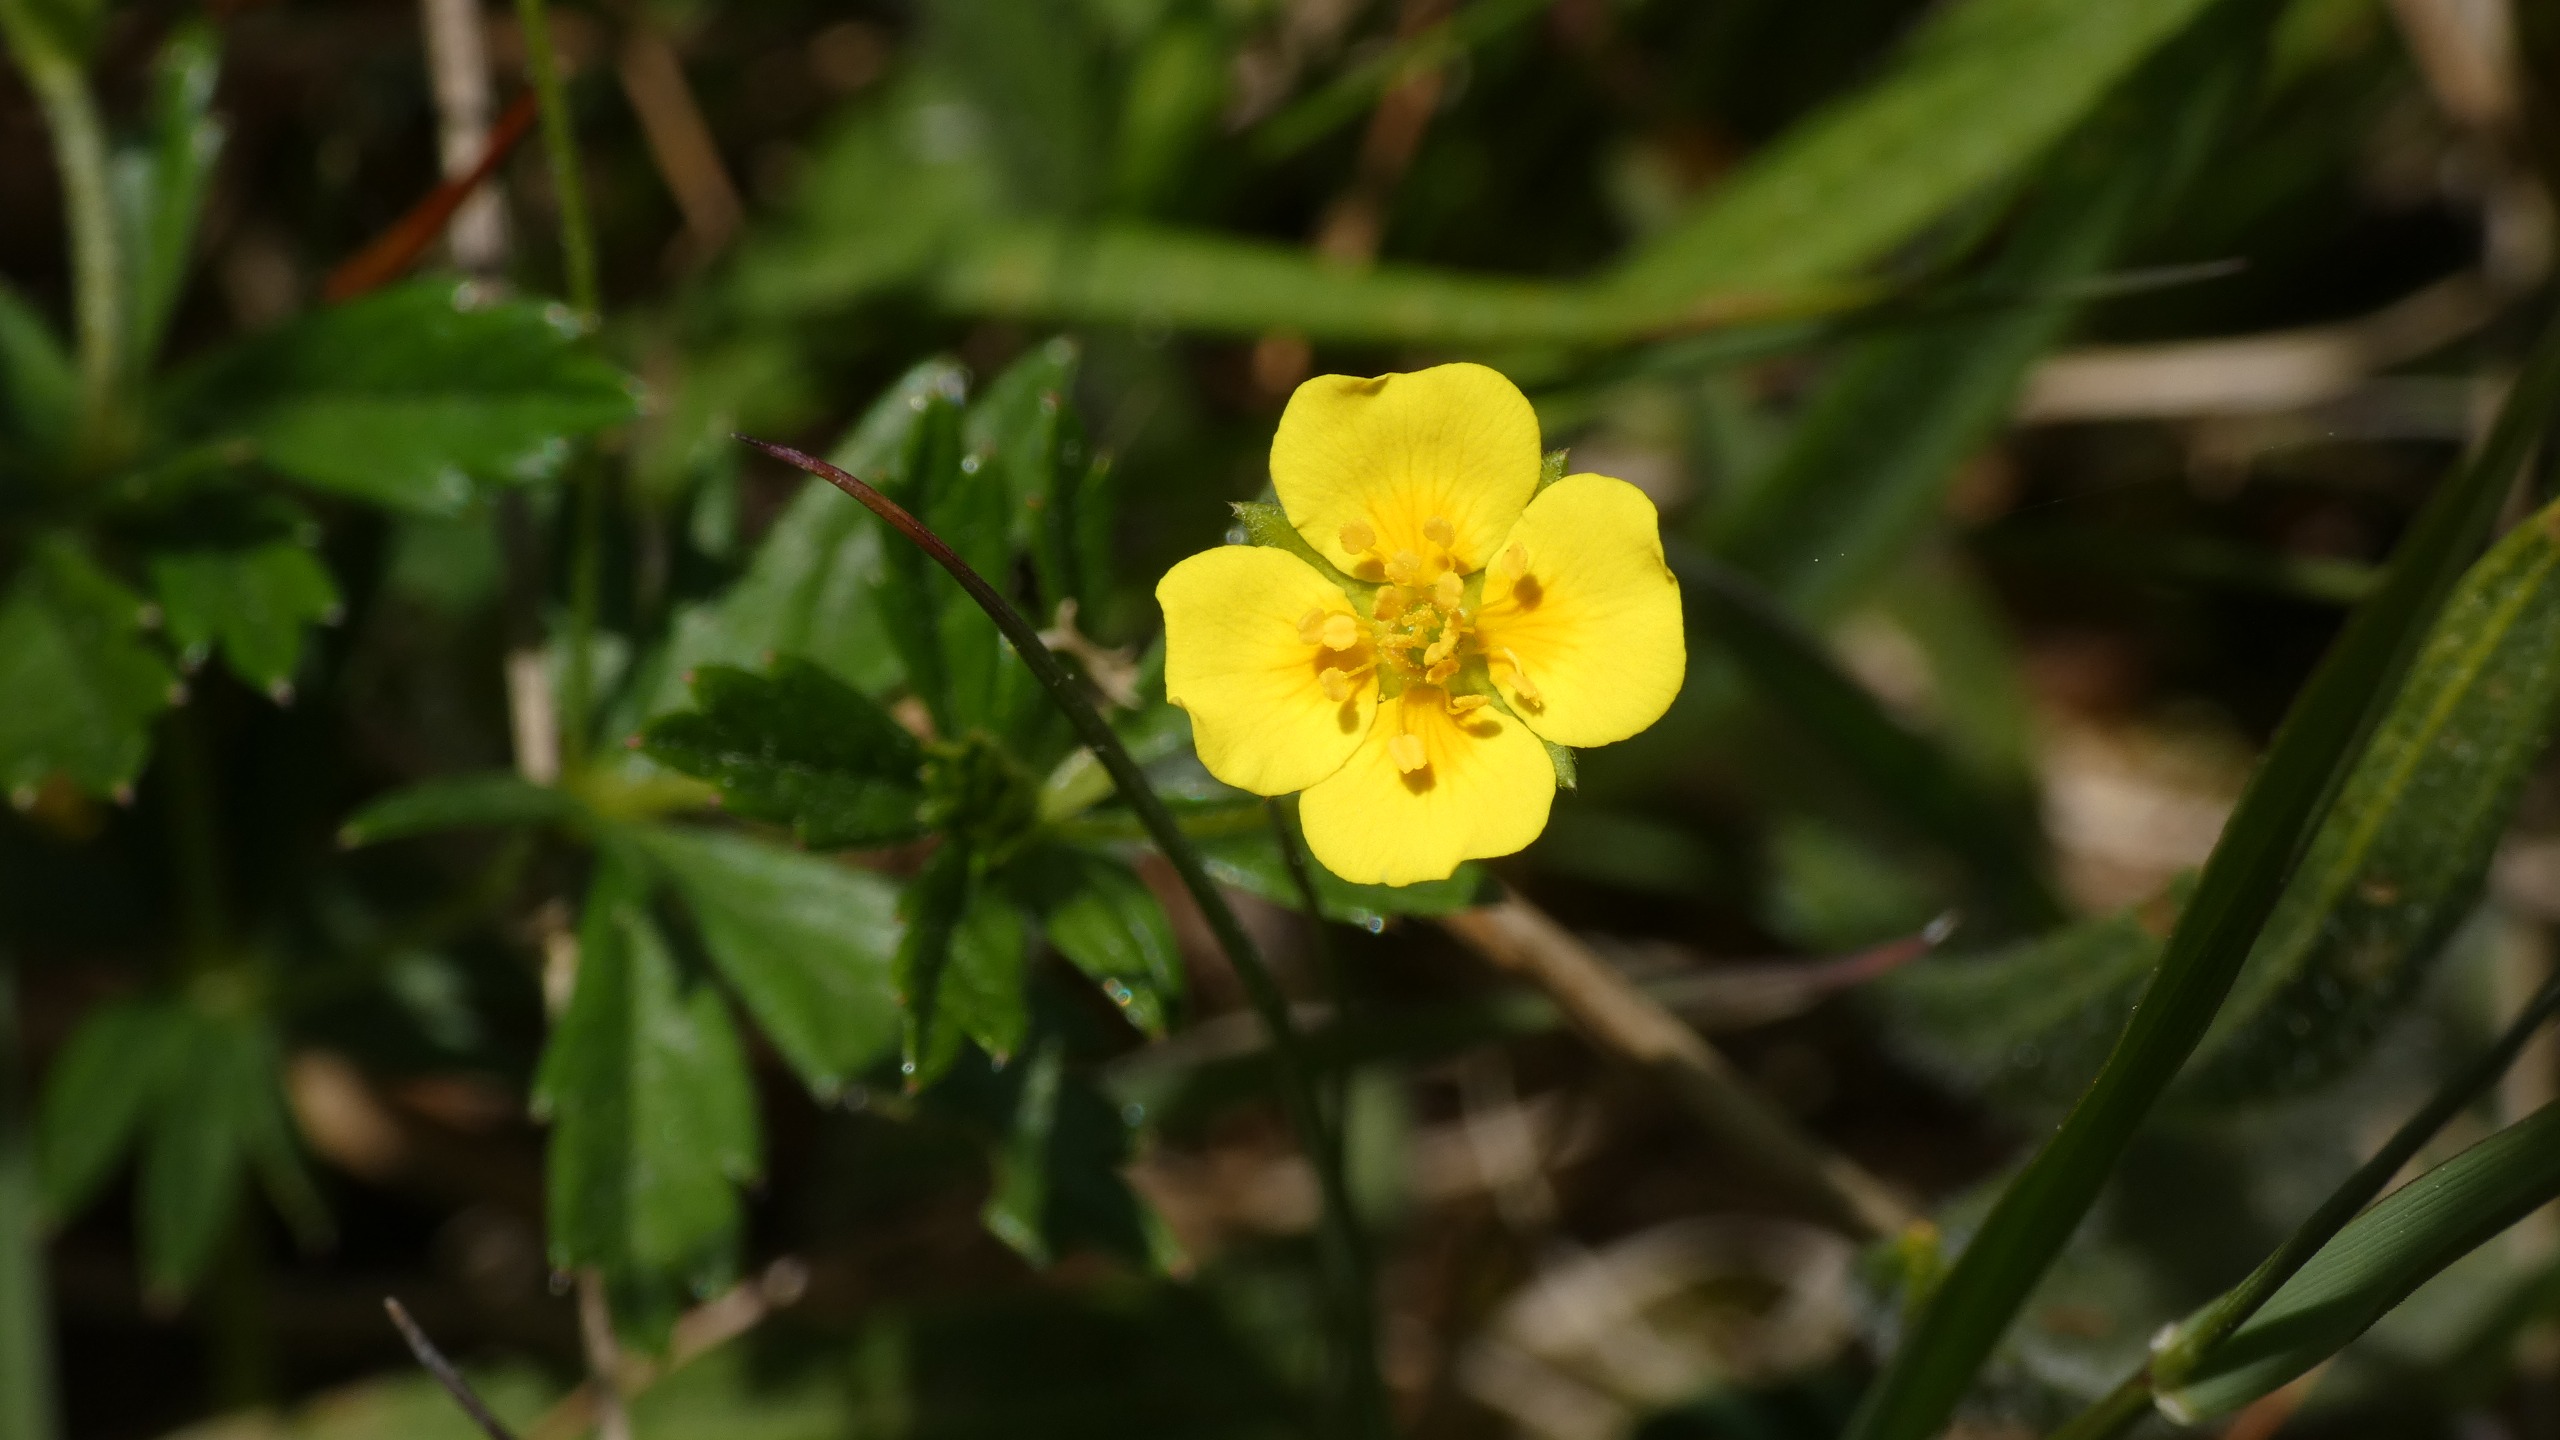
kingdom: Plantae
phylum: Tracheophyta
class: Magnoliopsida
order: Rosales
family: Rosaceae
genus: Potentilla
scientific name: Potentilla erecta
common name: Tormentil
